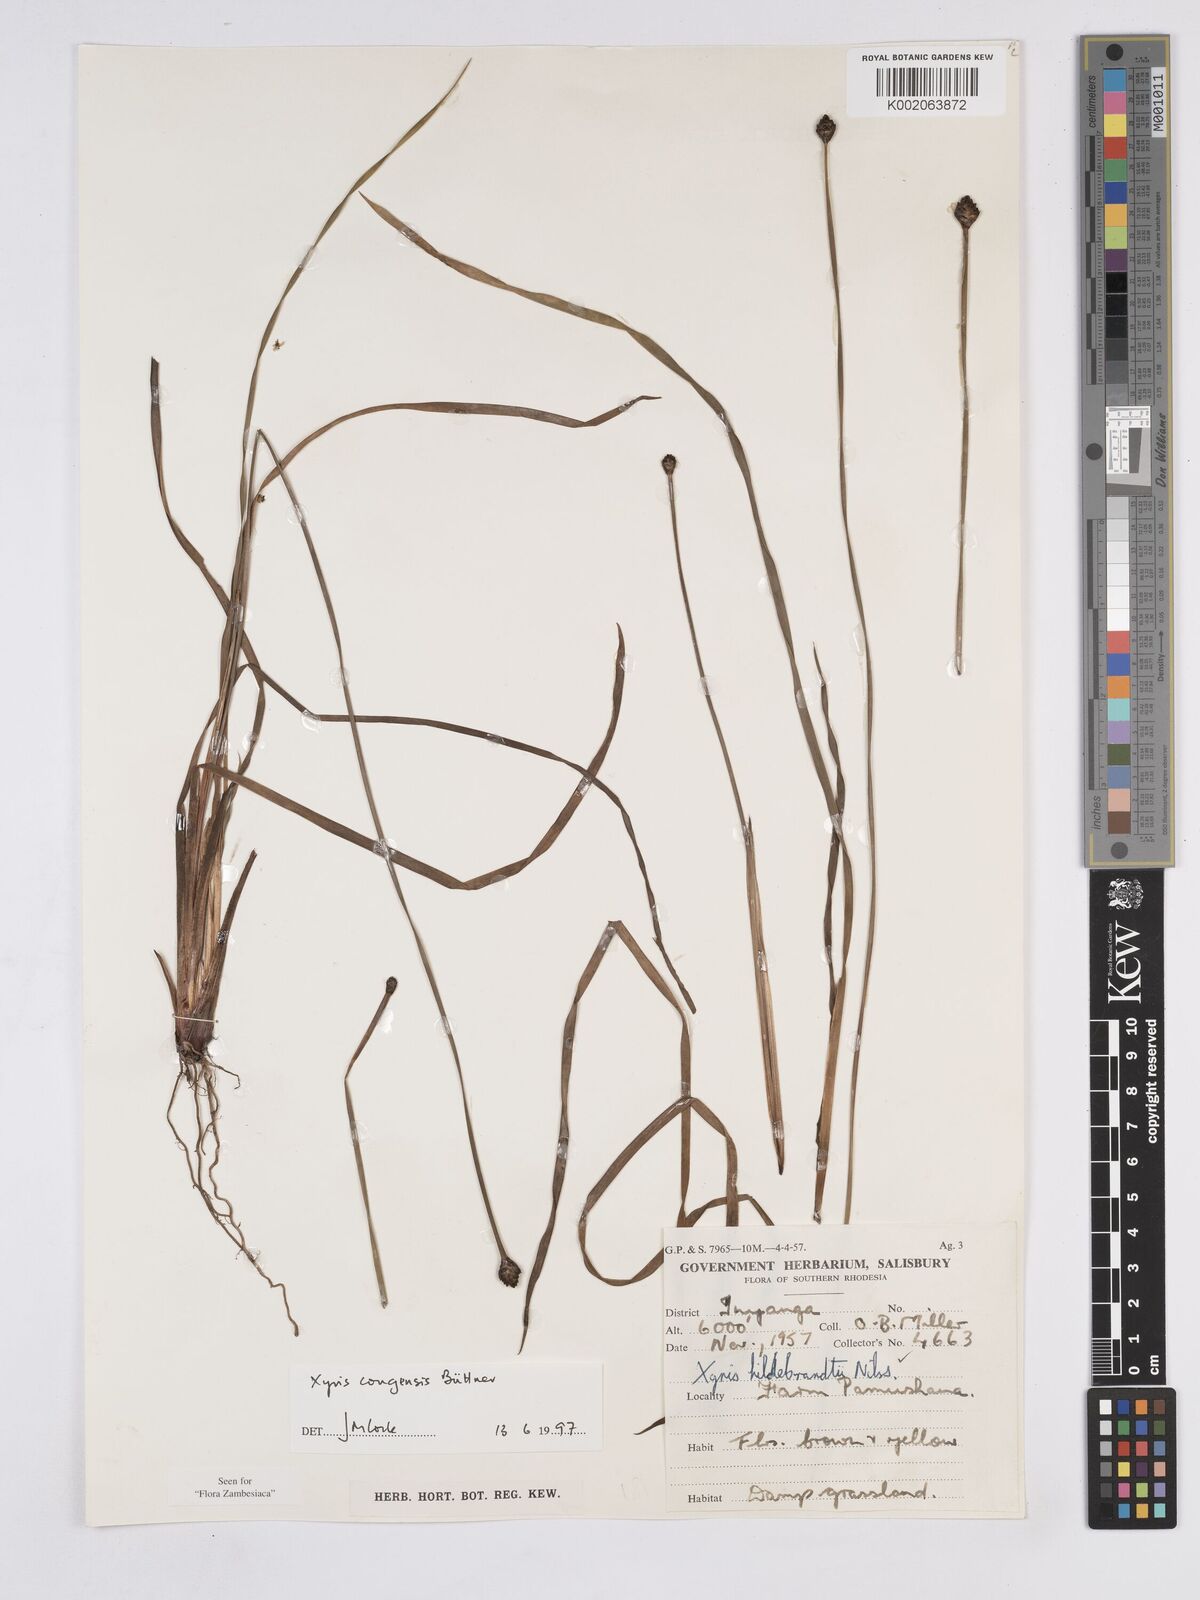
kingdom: Plantae
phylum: Tracheophyta
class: Liliopsida
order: Poales
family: Xyridaceae
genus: Xyris
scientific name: Xyris congensis
